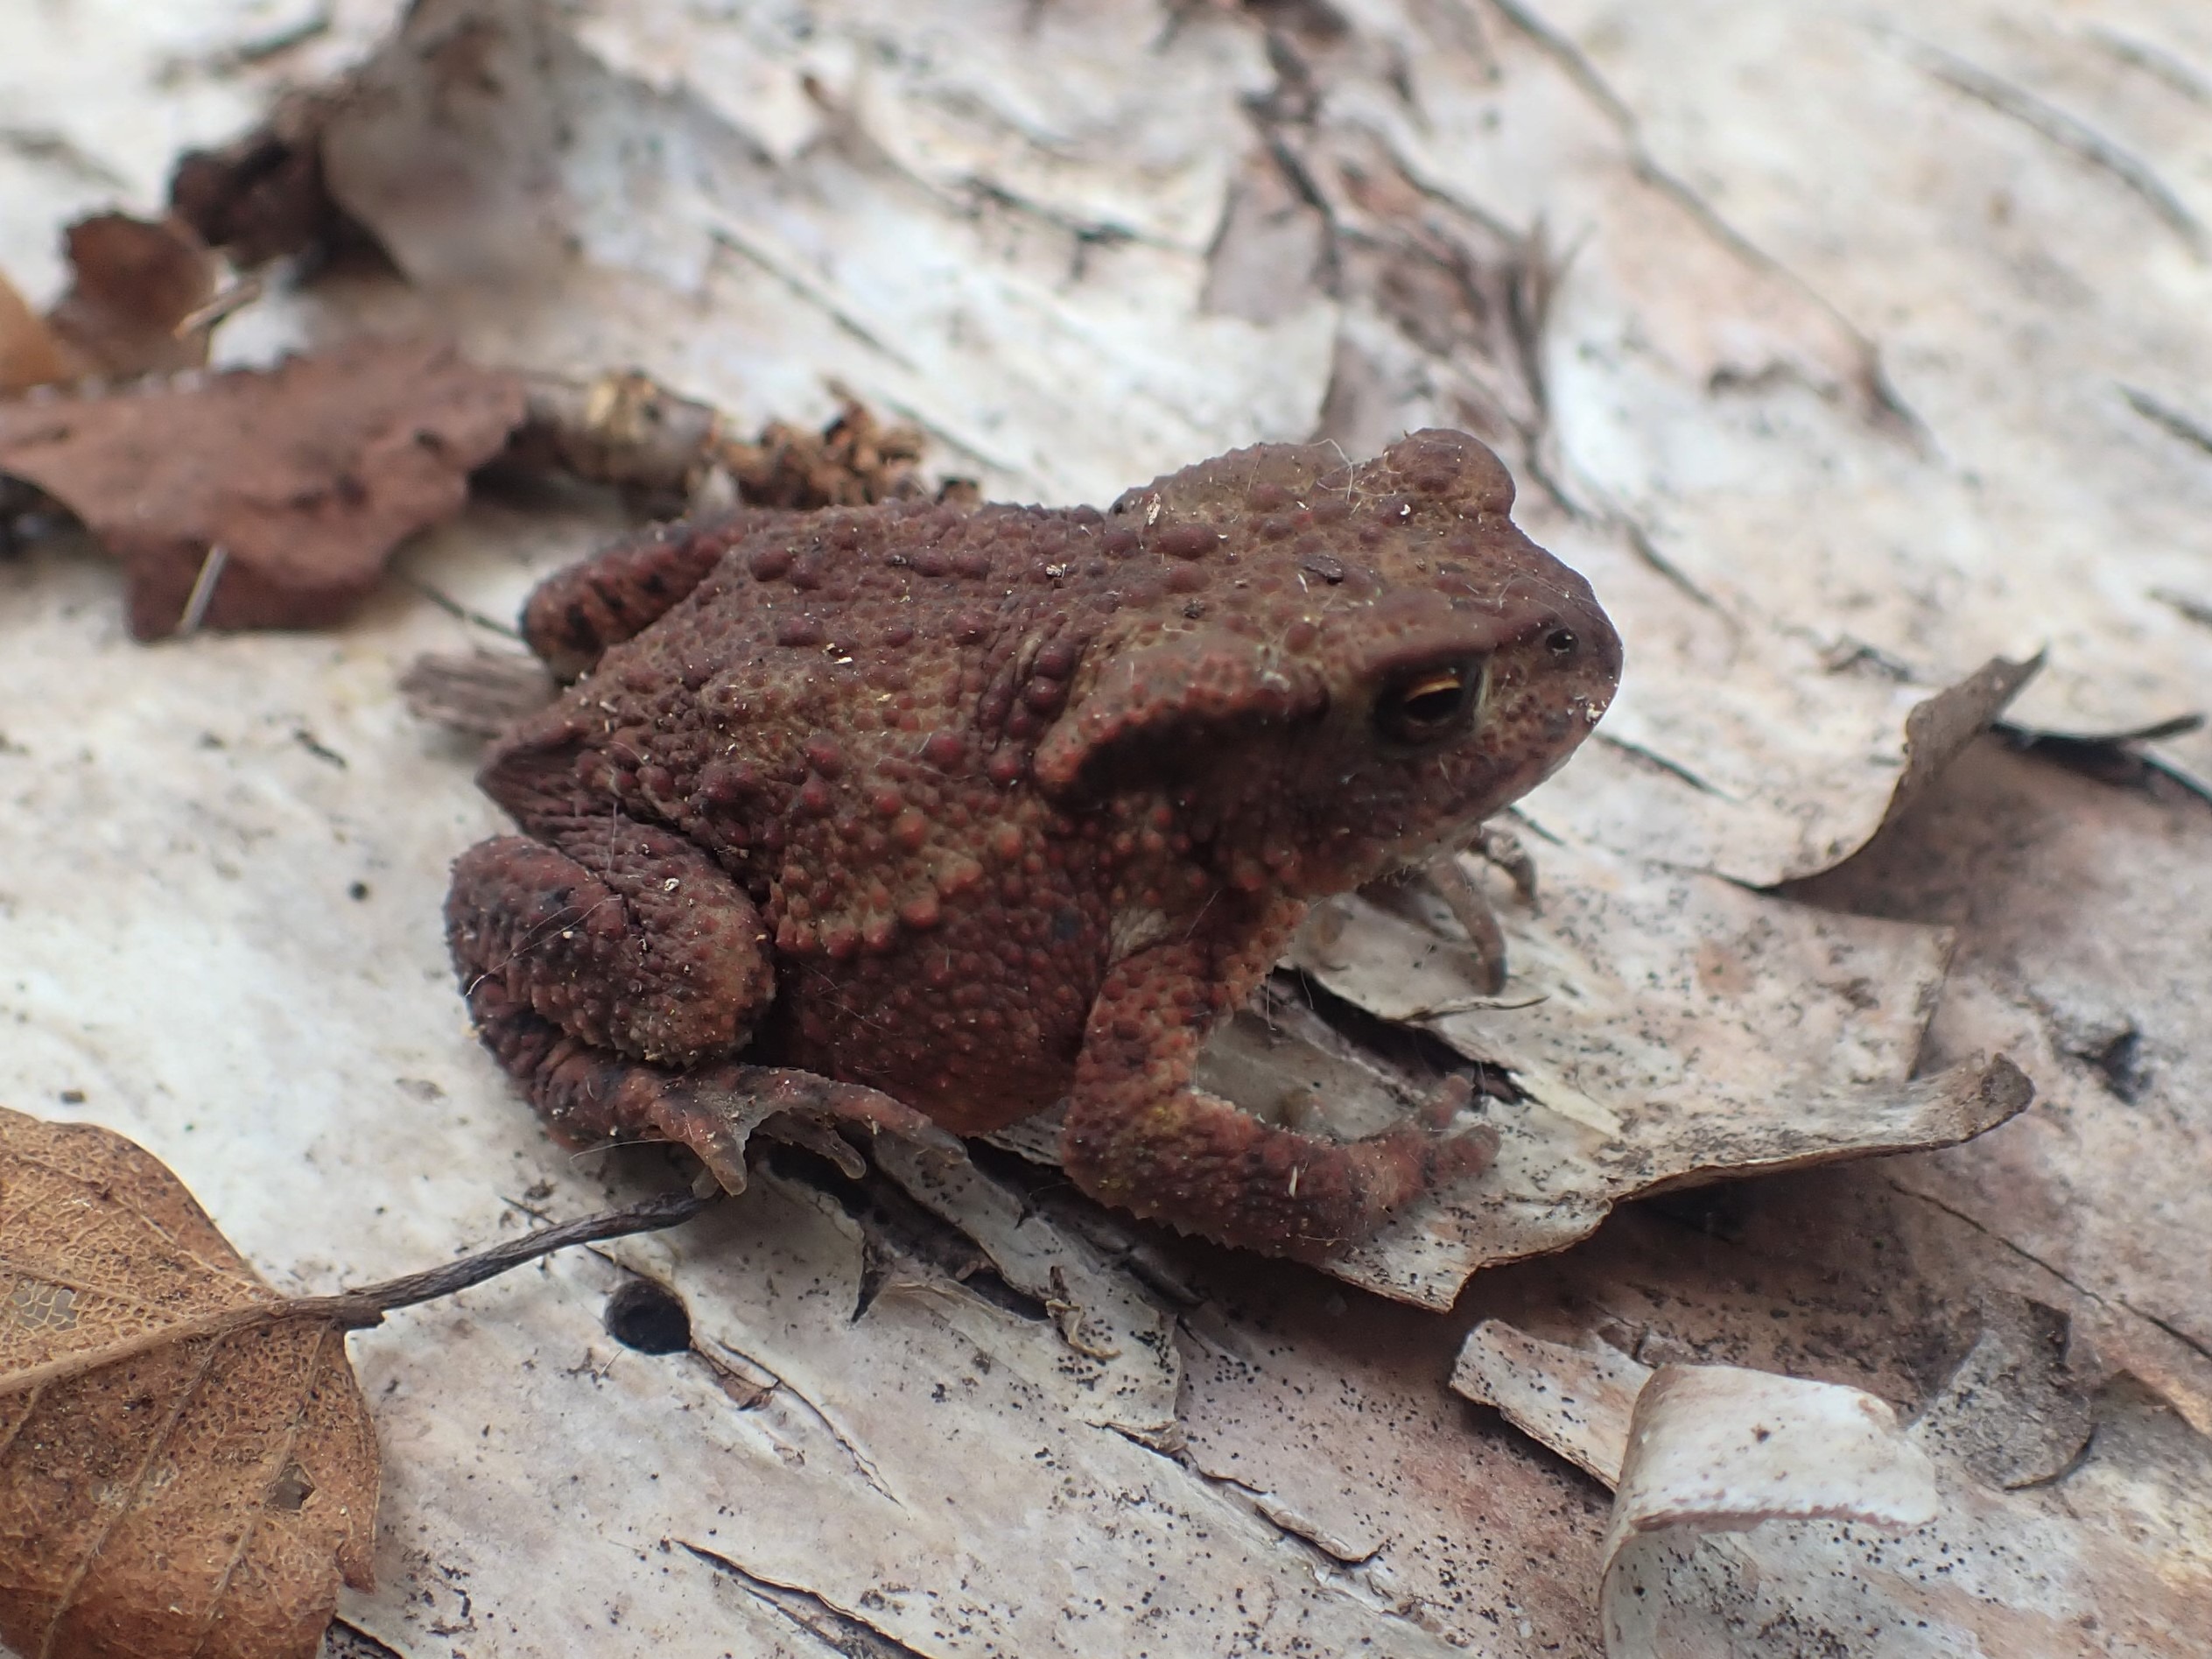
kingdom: Animalia
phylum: Chordata
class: Amphibia
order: Anura
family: Bufonidae
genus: Bufo
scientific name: Bufo bufo
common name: Skrubtudse
